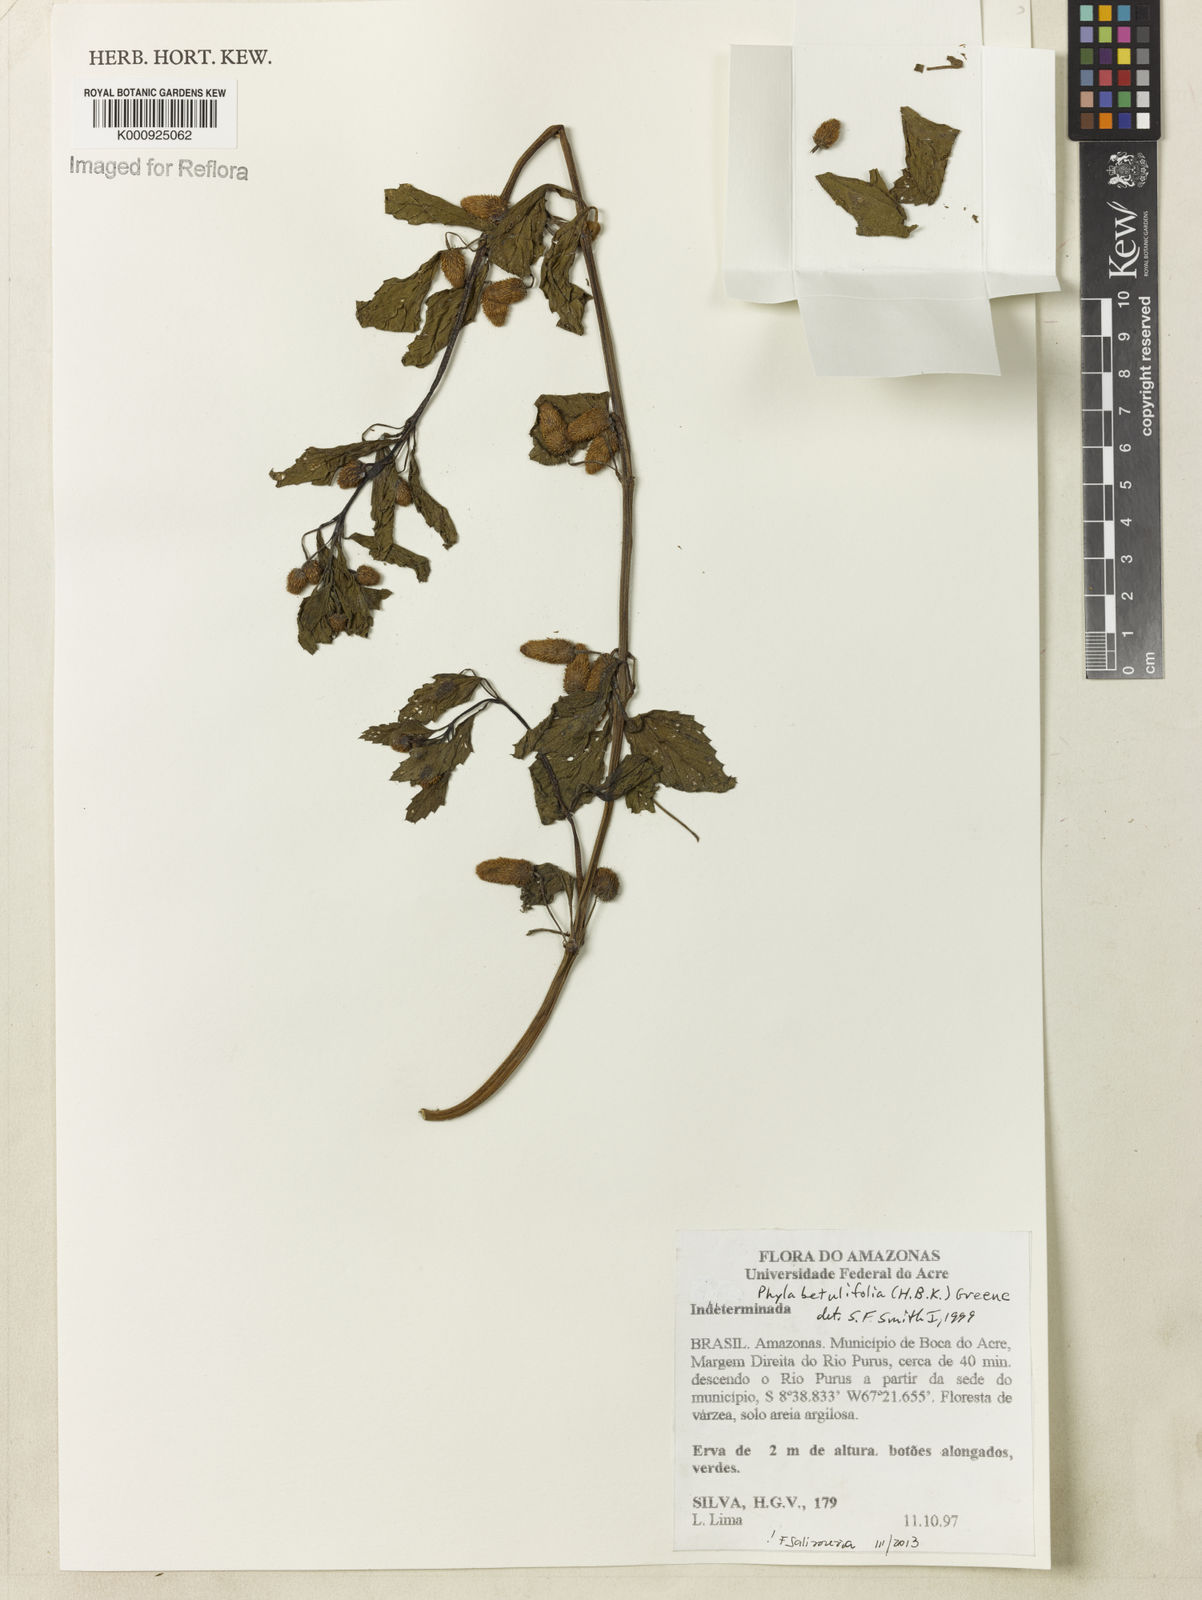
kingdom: Plantae
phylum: Tracheophyta
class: Magnoliopsida
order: Lamiales
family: Verbenaceae
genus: Phyla
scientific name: Phyla betulifolia
